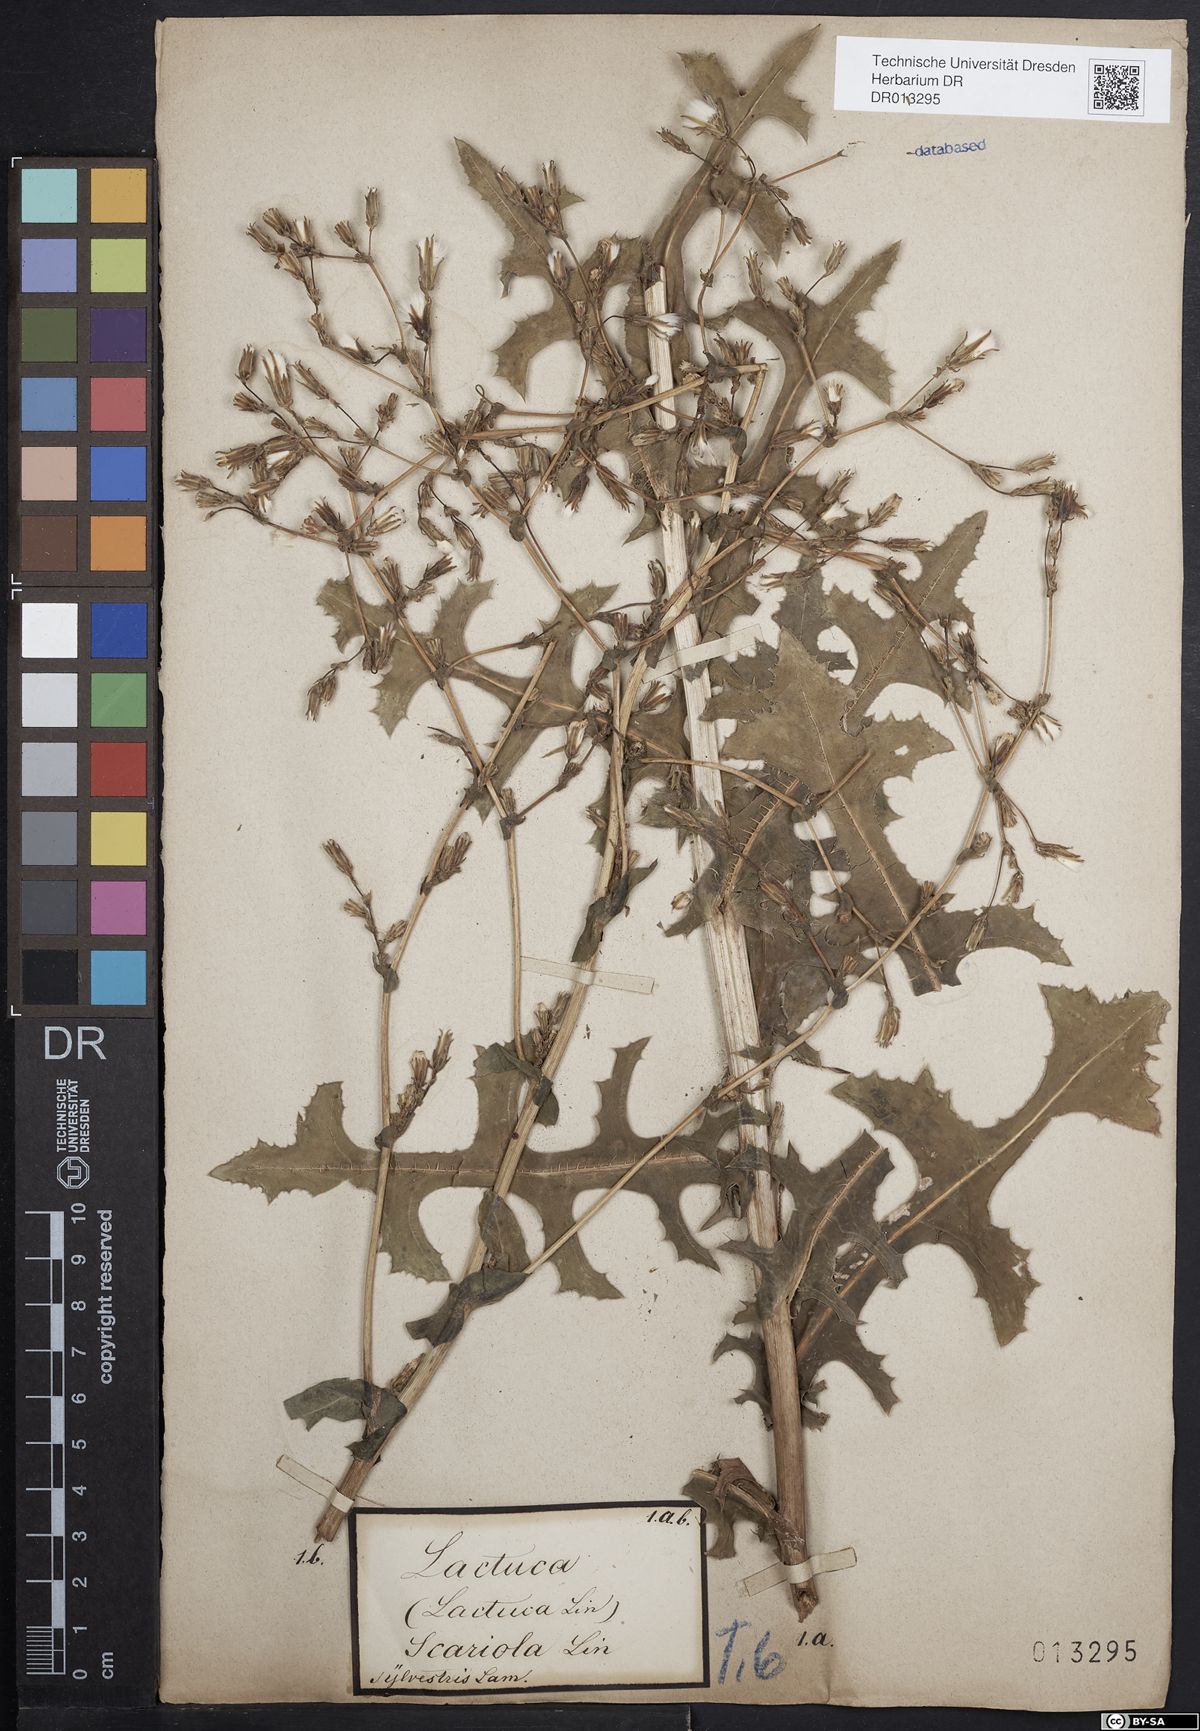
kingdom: Plantae
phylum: Tracheophyta
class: Magnoliopsida
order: Asterales
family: Asteraceae
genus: Lactuca
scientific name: Lactuca serriola
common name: Prickly lettuce
